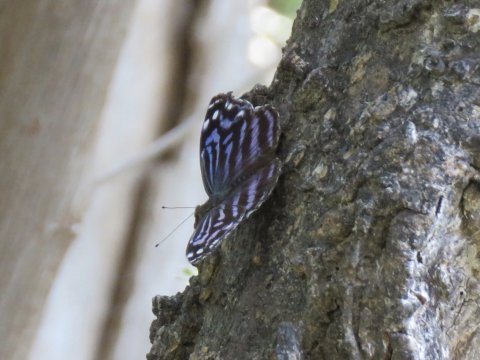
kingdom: Animalia
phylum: Arthropoda
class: Insecta
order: Lepidoptera
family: Nymphalidae
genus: Myscelia
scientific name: Myscelia ethusa
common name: Mexican Bluewing
